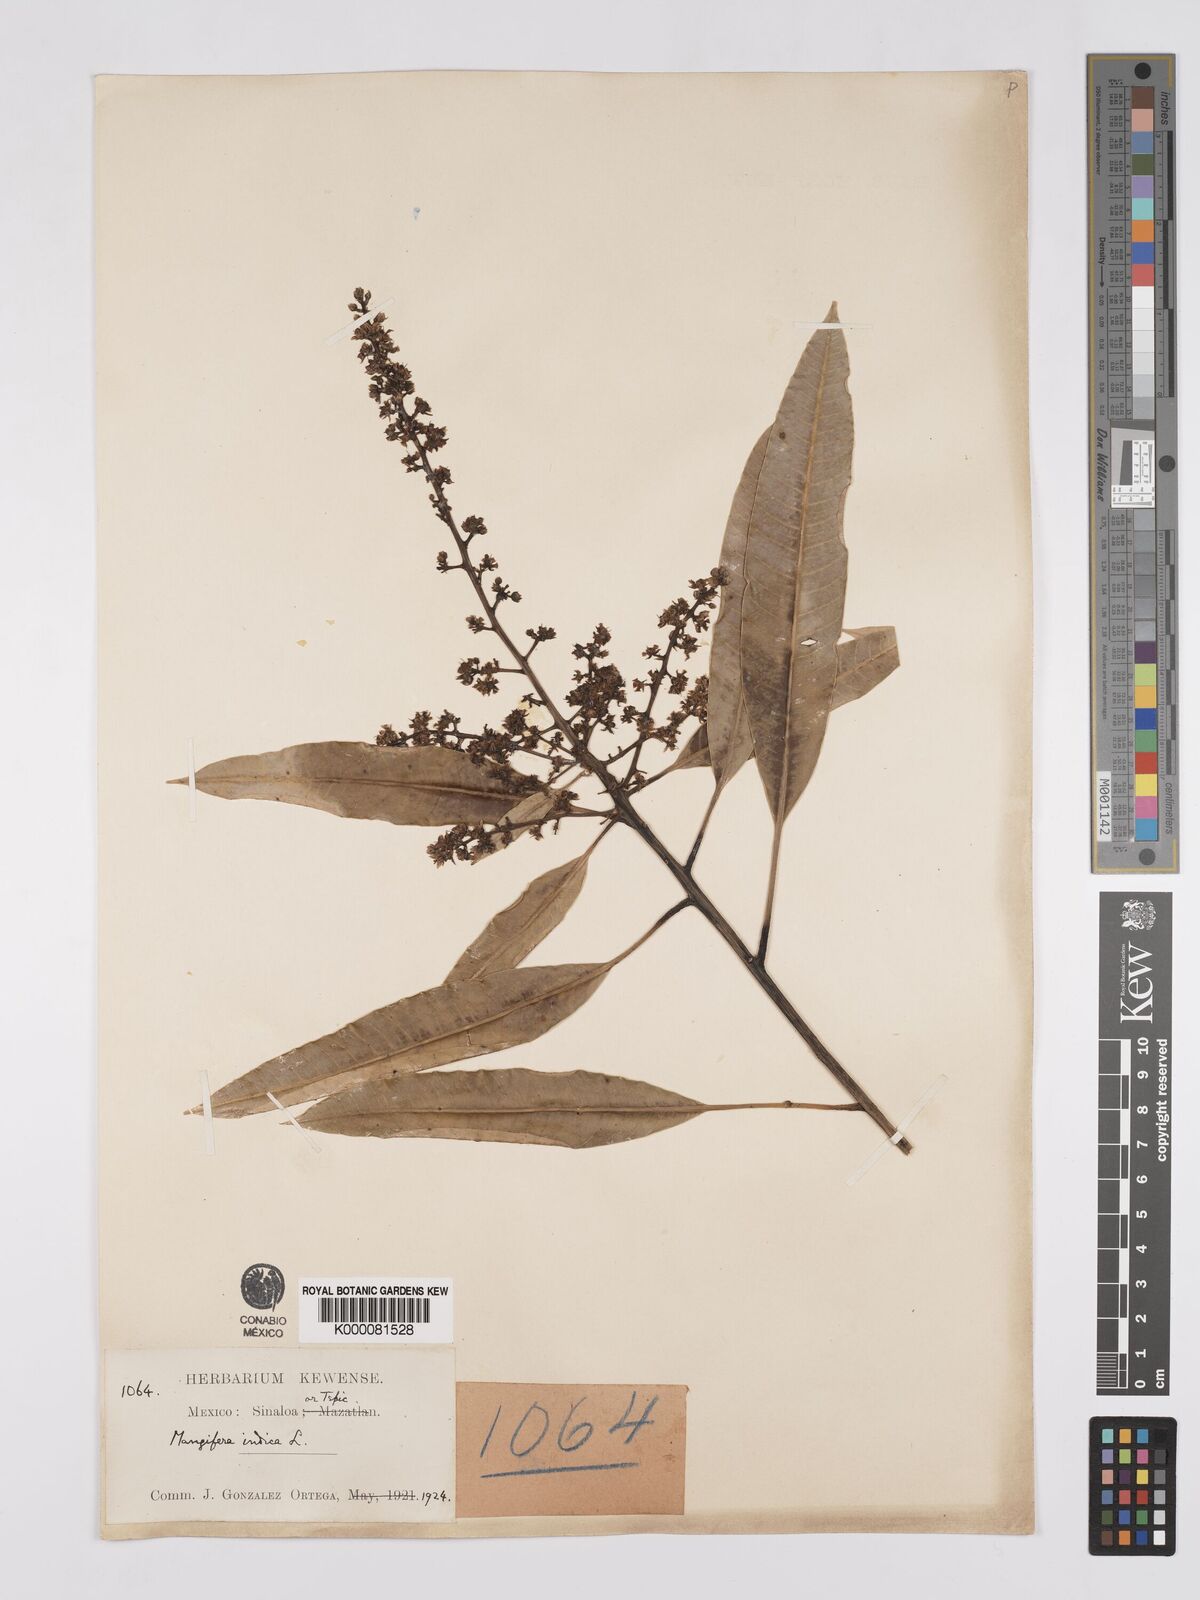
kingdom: Plantae
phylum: Tracheophyta
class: Magnoliopsida
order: Sapindales
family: Anacardiaceae
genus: Mangifera
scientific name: Mangifera indica
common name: Mango
